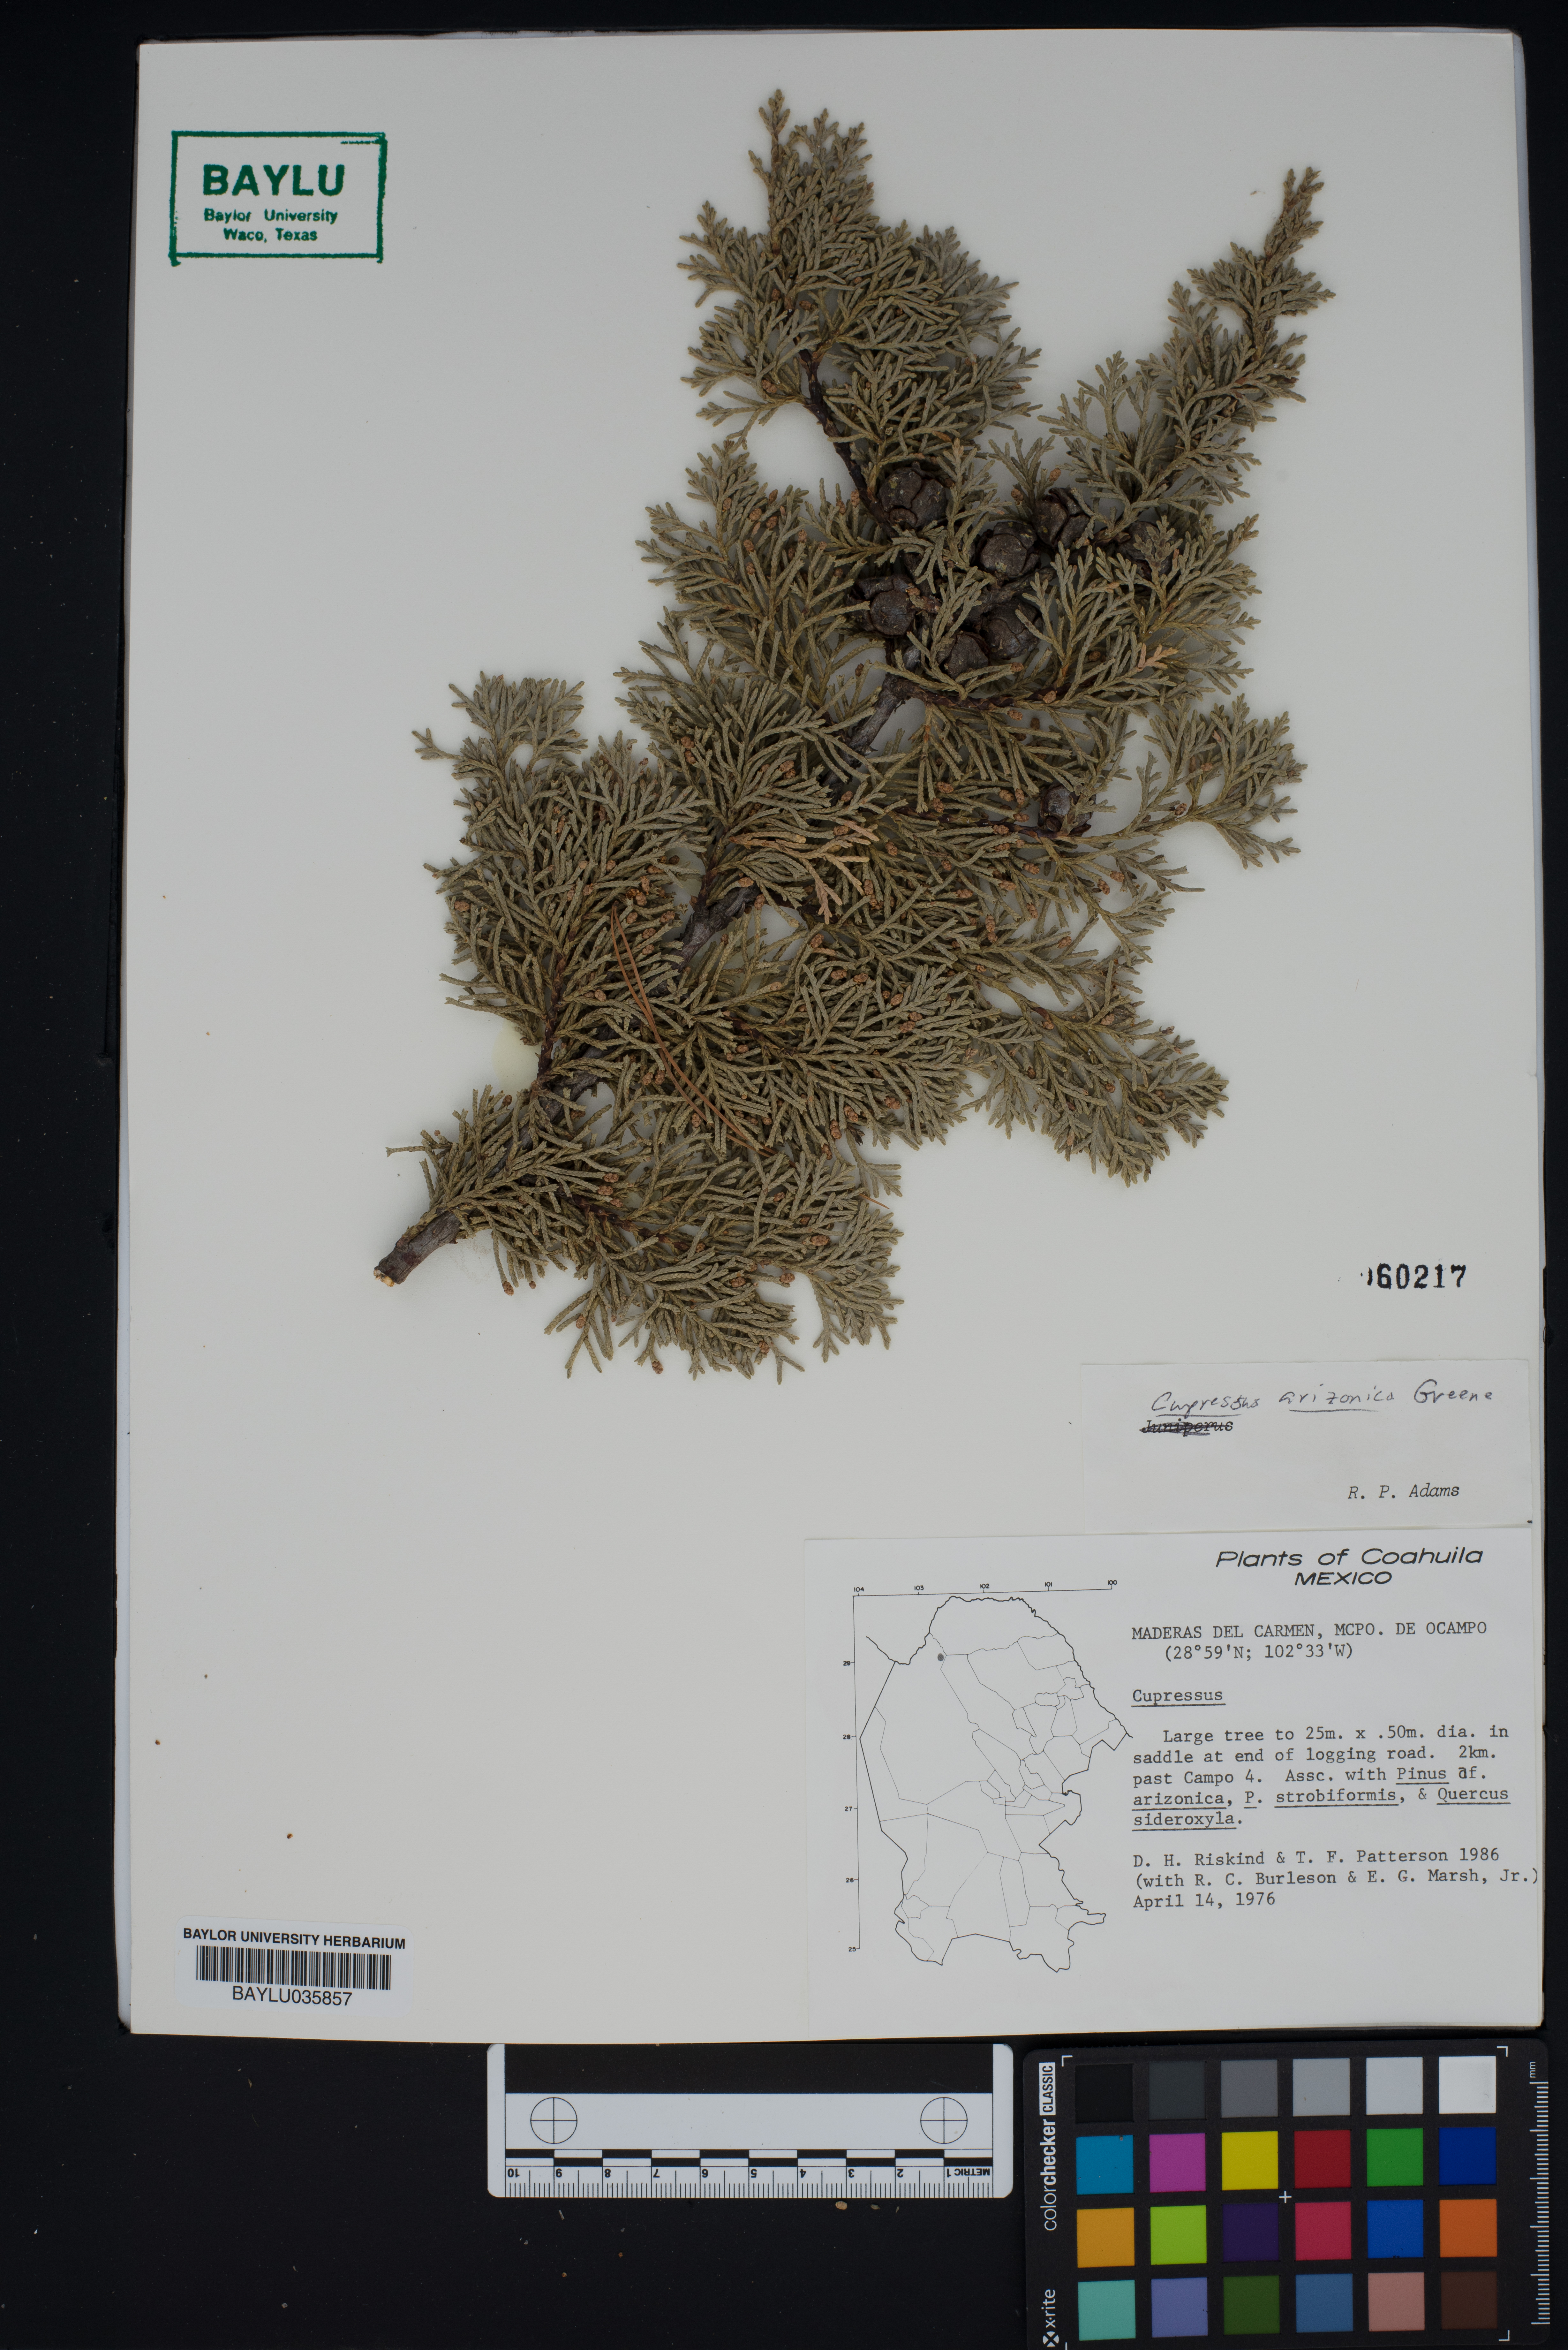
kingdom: Plantae
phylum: Tracheophyta
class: Pinopsida
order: Pinales
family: Cupressaceae
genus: Cupressus
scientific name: Cupressus arizonica
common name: Arizona cypress
